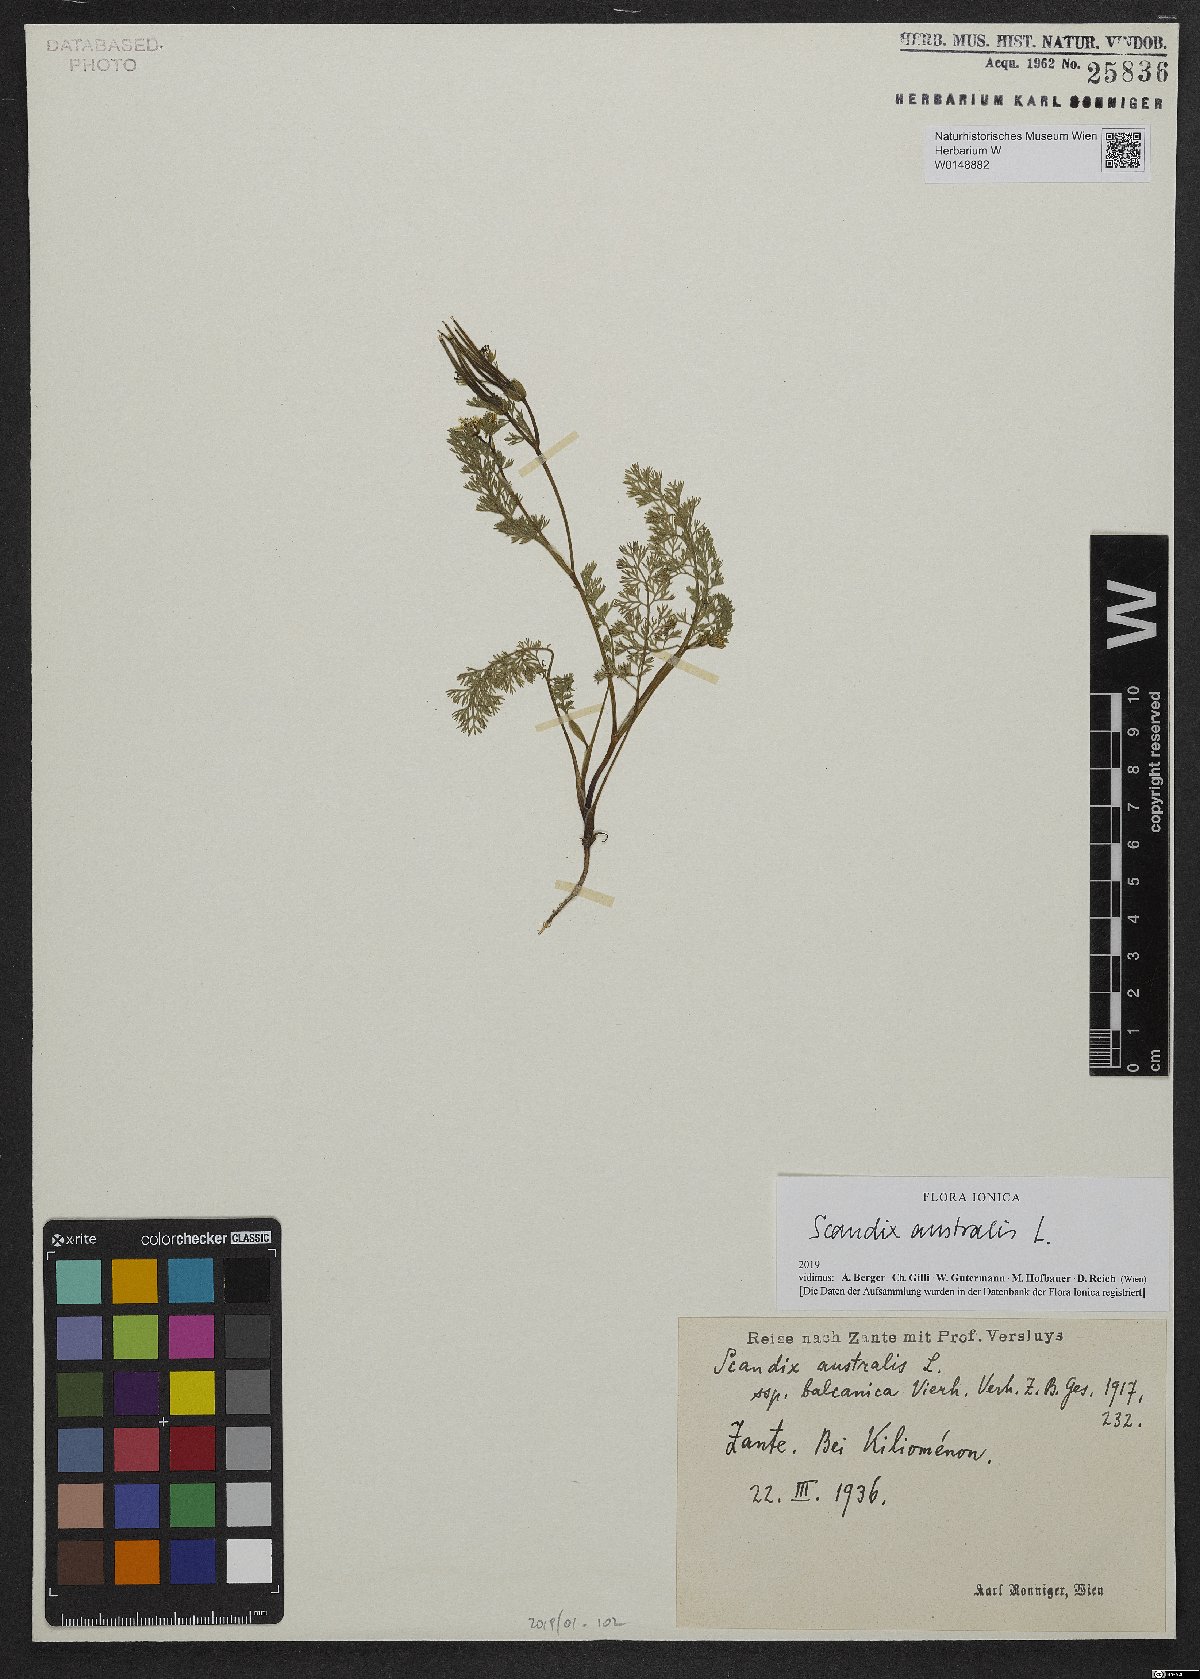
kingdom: Plantae
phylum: Tracheophyta
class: Magnoliopsida
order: Apiales
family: Apiaceae
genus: Scandix
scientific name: Scandix australis
